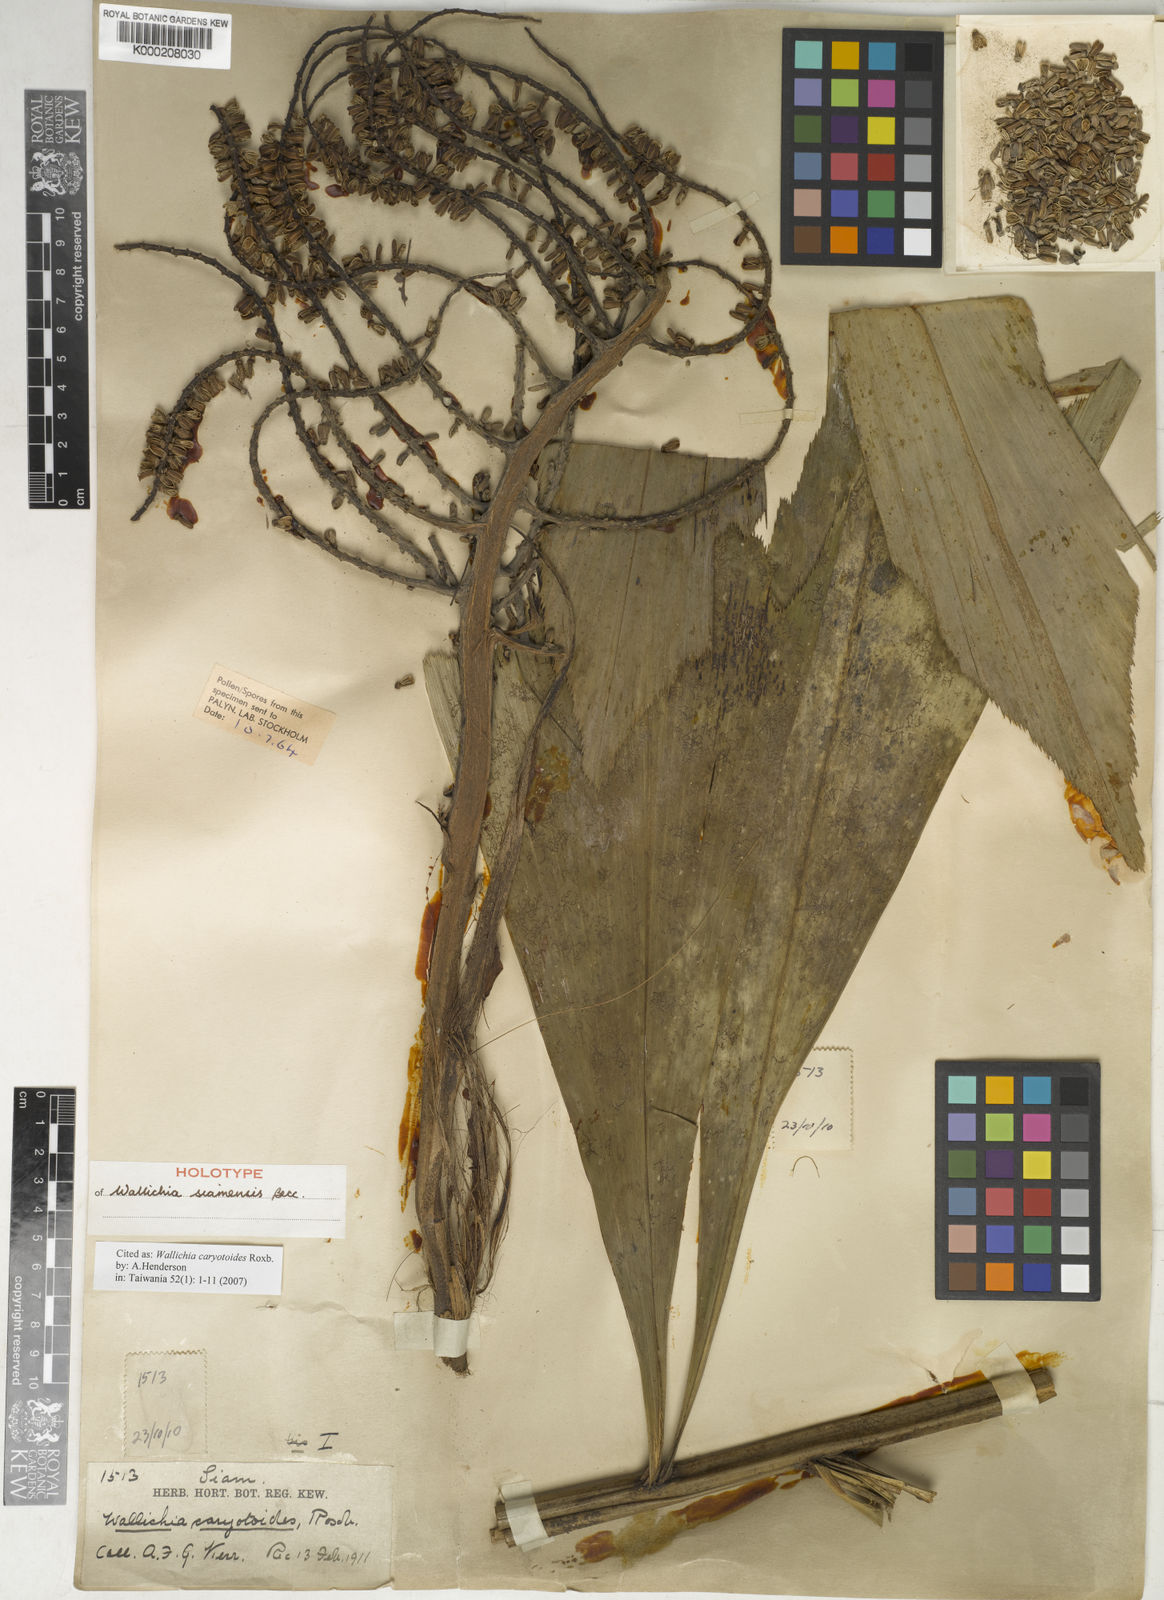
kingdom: Plantae
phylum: Tracheophyta
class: Liliopsida
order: Arecales
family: Arecaceae
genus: Wallichia
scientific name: Wallichia caryotoides
